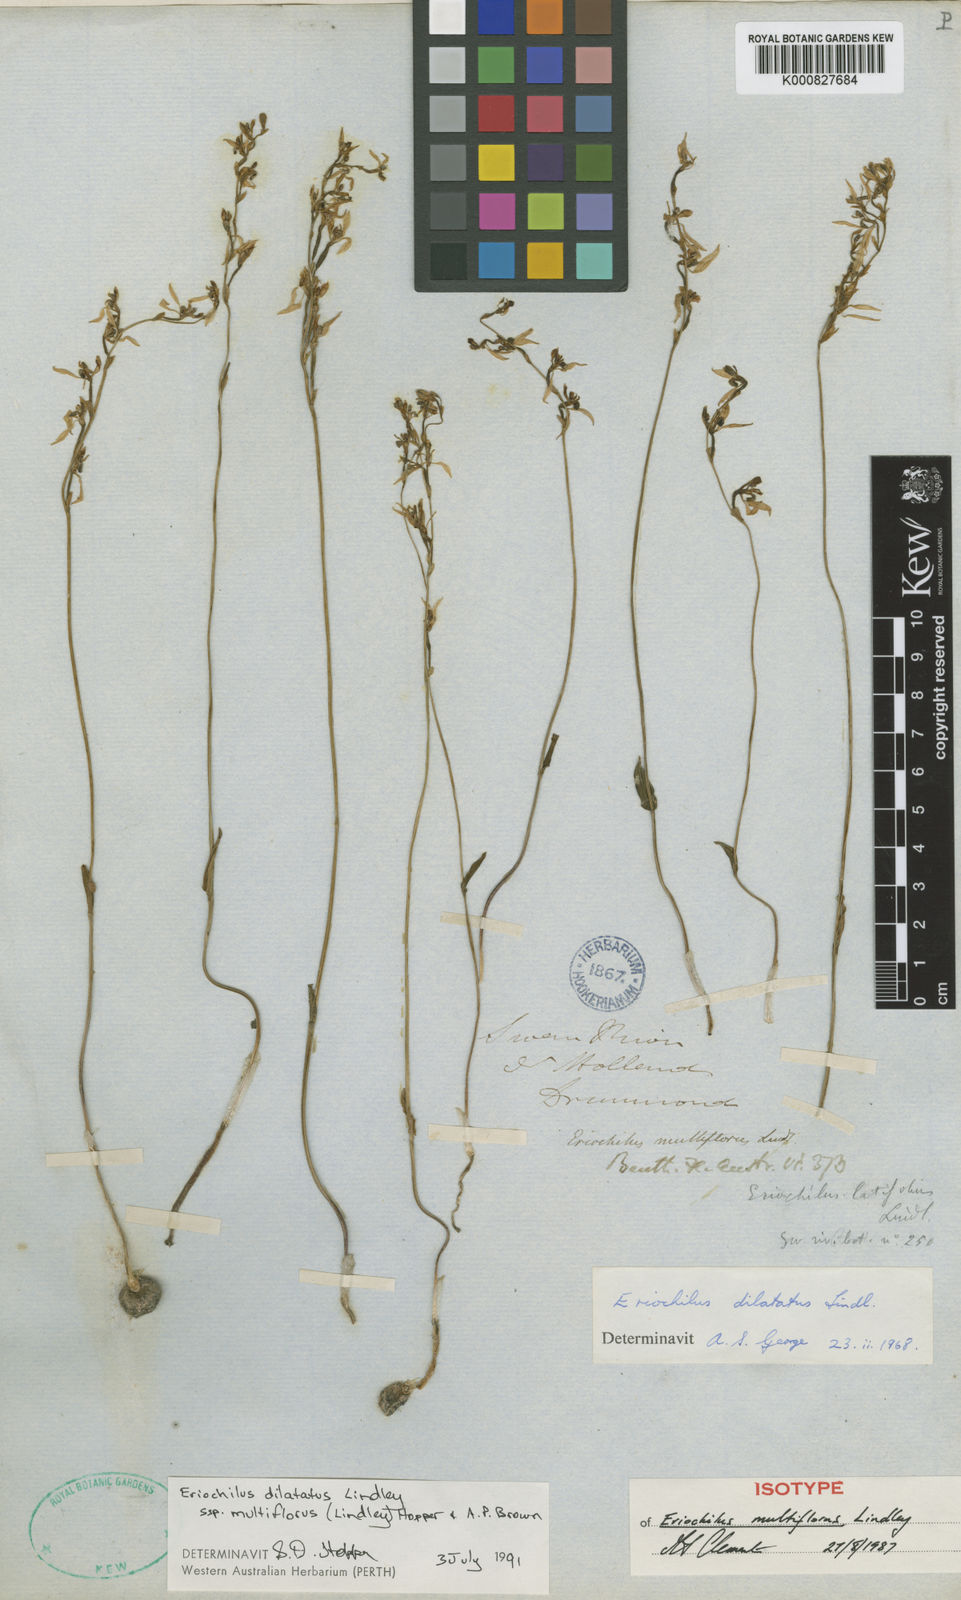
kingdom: Plantae
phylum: Tracheophyta
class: Liliopsida
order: Asparagales
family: Orchidaceae
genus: Eriochilus
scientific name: Eriochilus dilatatus
